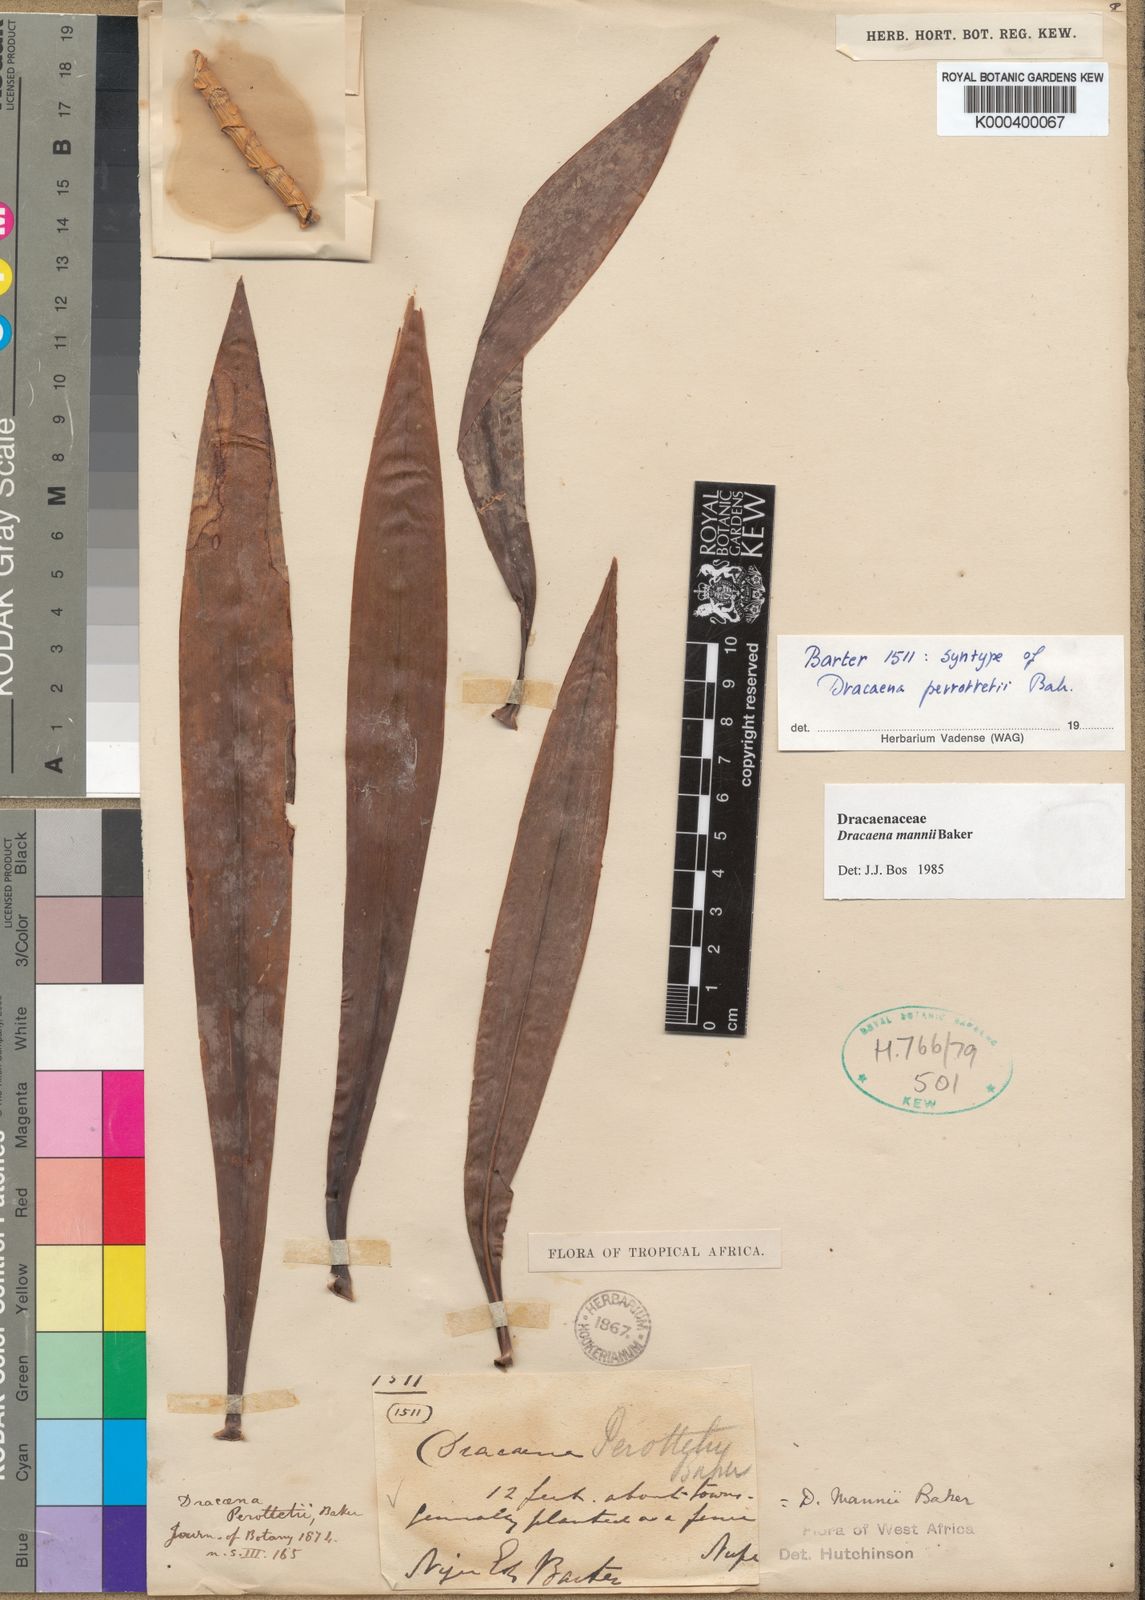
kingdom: Plantae
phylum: Tracheophyta
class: Liliopsida
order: Asparagales
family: Asparagaceae
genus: Dracaena
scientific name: Dracaena perrottetii
